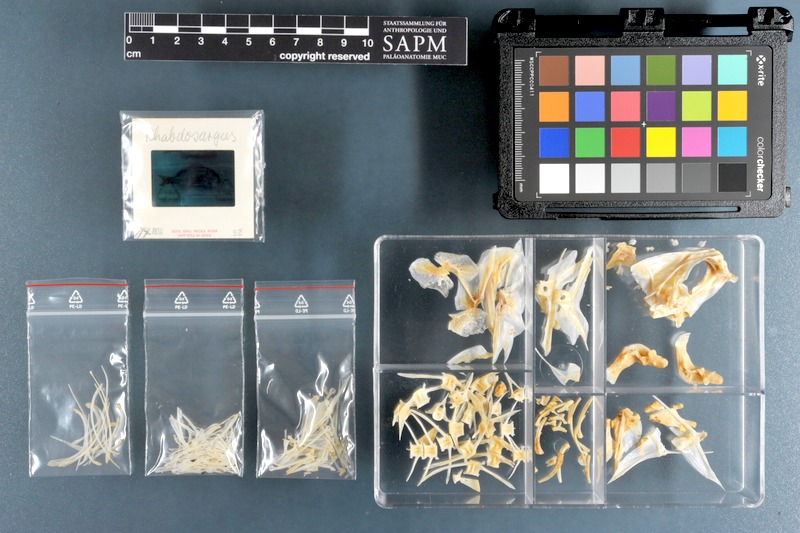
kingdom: Animalia
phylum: Chordata
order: Perciformes
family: Sparidae
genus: Rhabdosargus
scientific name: Rhabdosargus sarba
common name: Goldlined seabream
